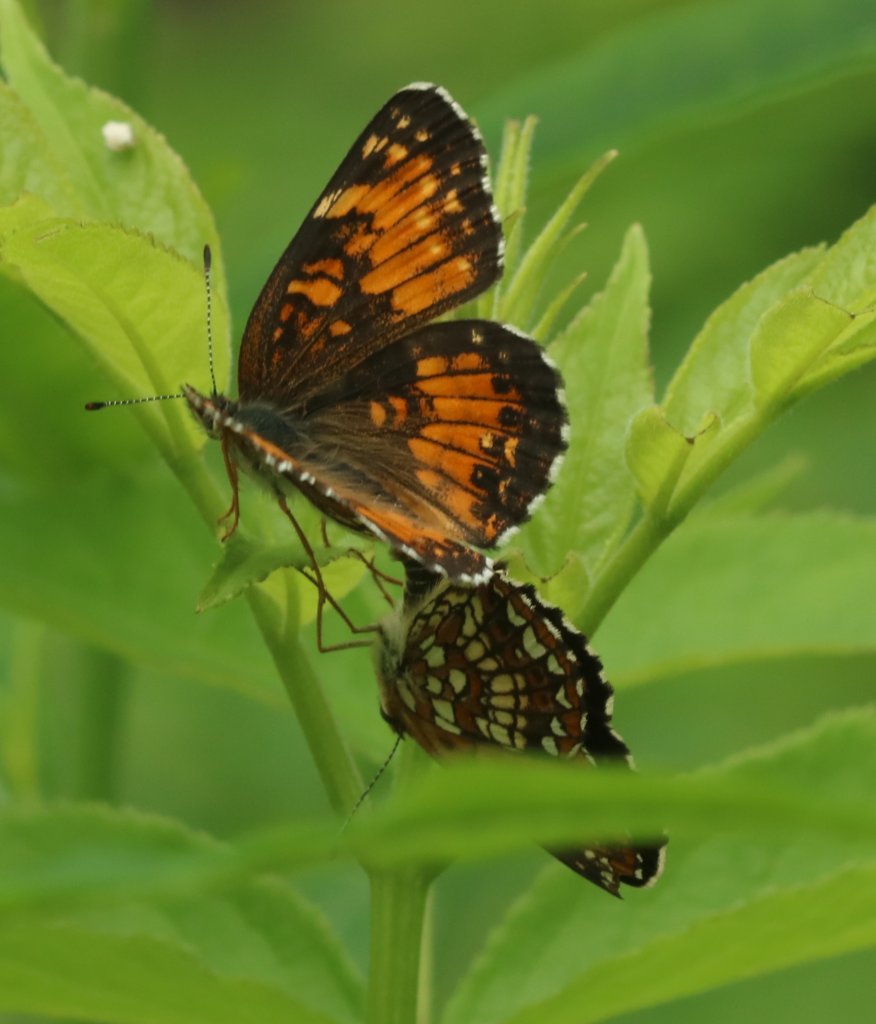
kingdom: Animalia
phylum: Arthropoda
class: Insecta
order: Lepidoptera
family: Nymphalidae
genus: Chlosyne
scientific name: Chlosyne harrisii
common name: Harris's Checkerspot
